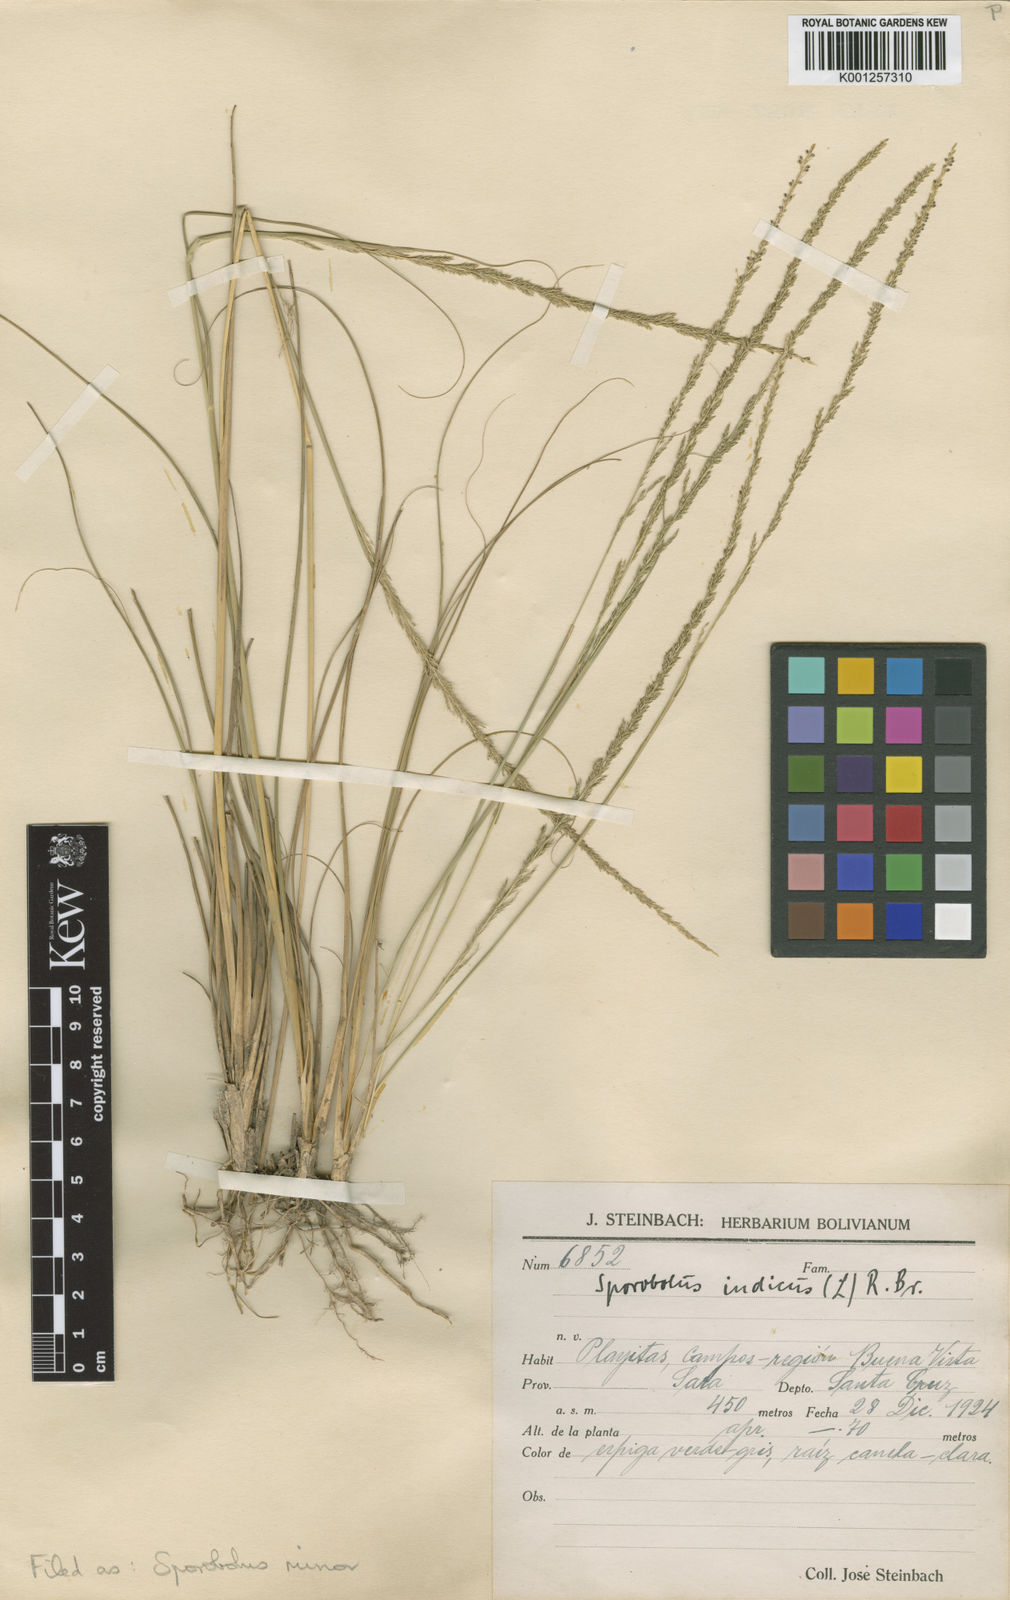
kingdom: Plantae
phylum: Tracheophyta
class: Liliopsida
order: Poales
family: Poaceae
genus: Sporobolus
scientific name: Sporobolus
